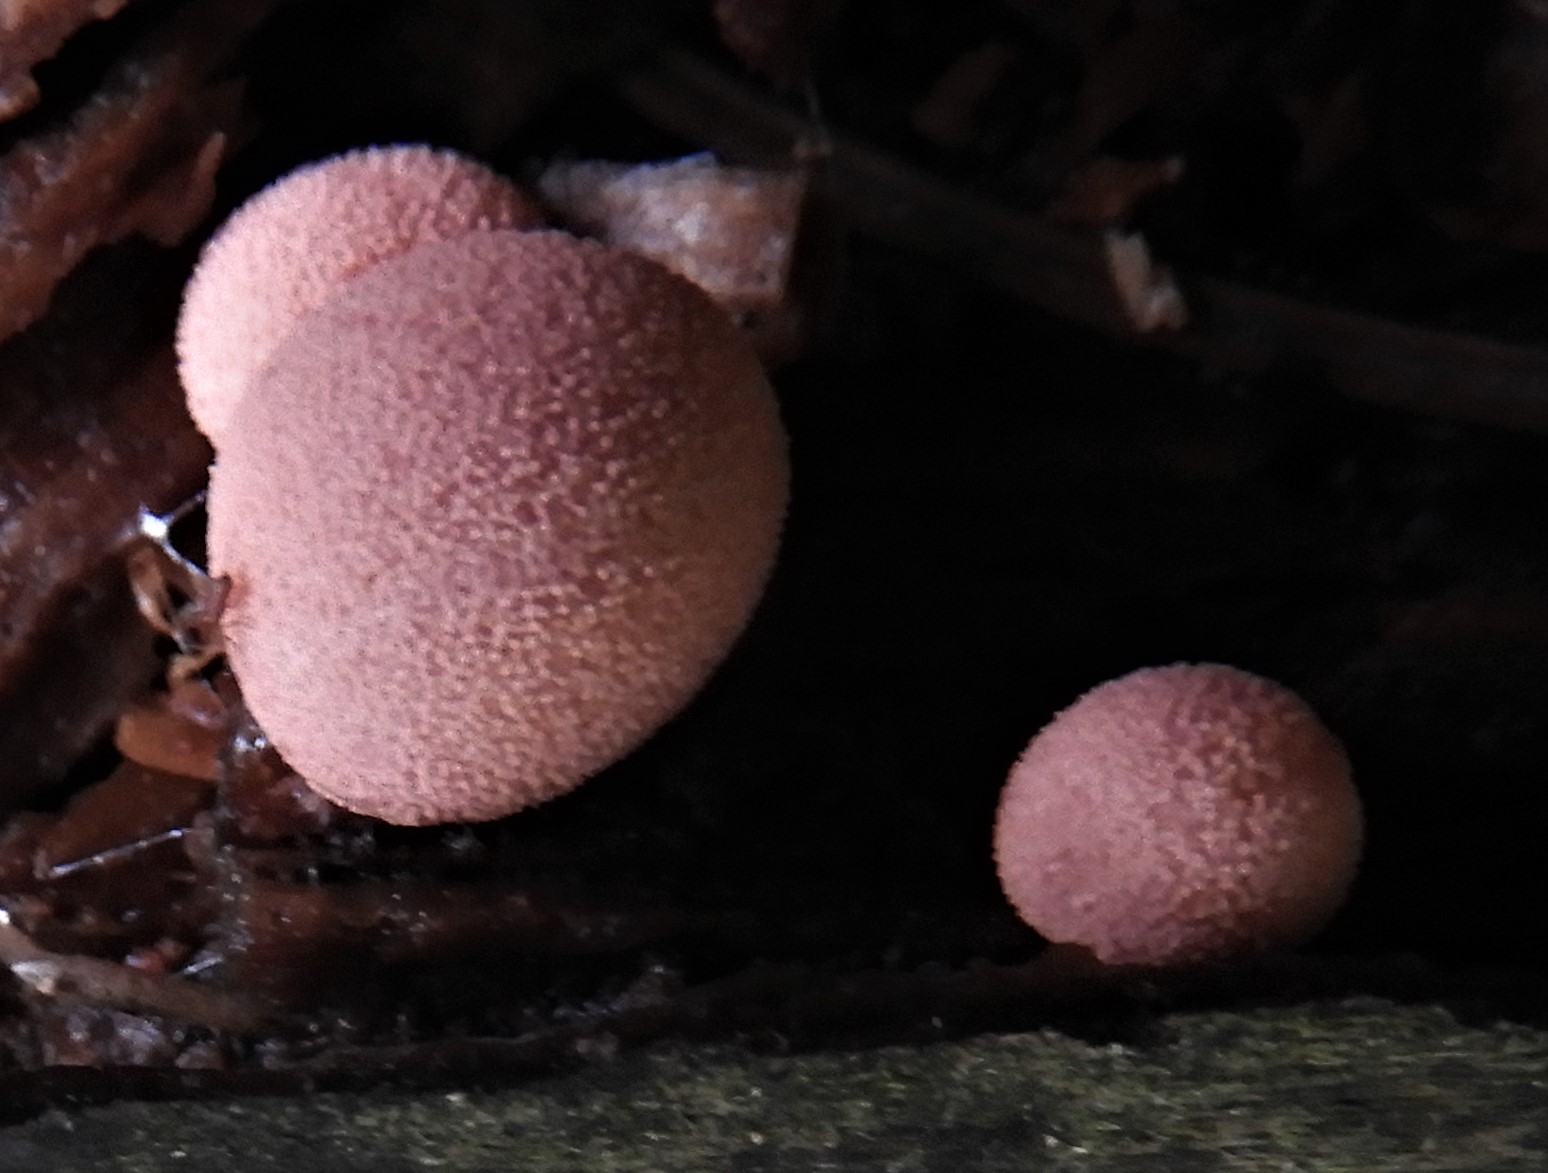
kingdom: Protozoa
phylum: Mycetozoa
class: Myxomycetes
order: Cribrariales
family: Tubiferaceae
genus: Lycogala
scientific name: Lycogala epidendrum
